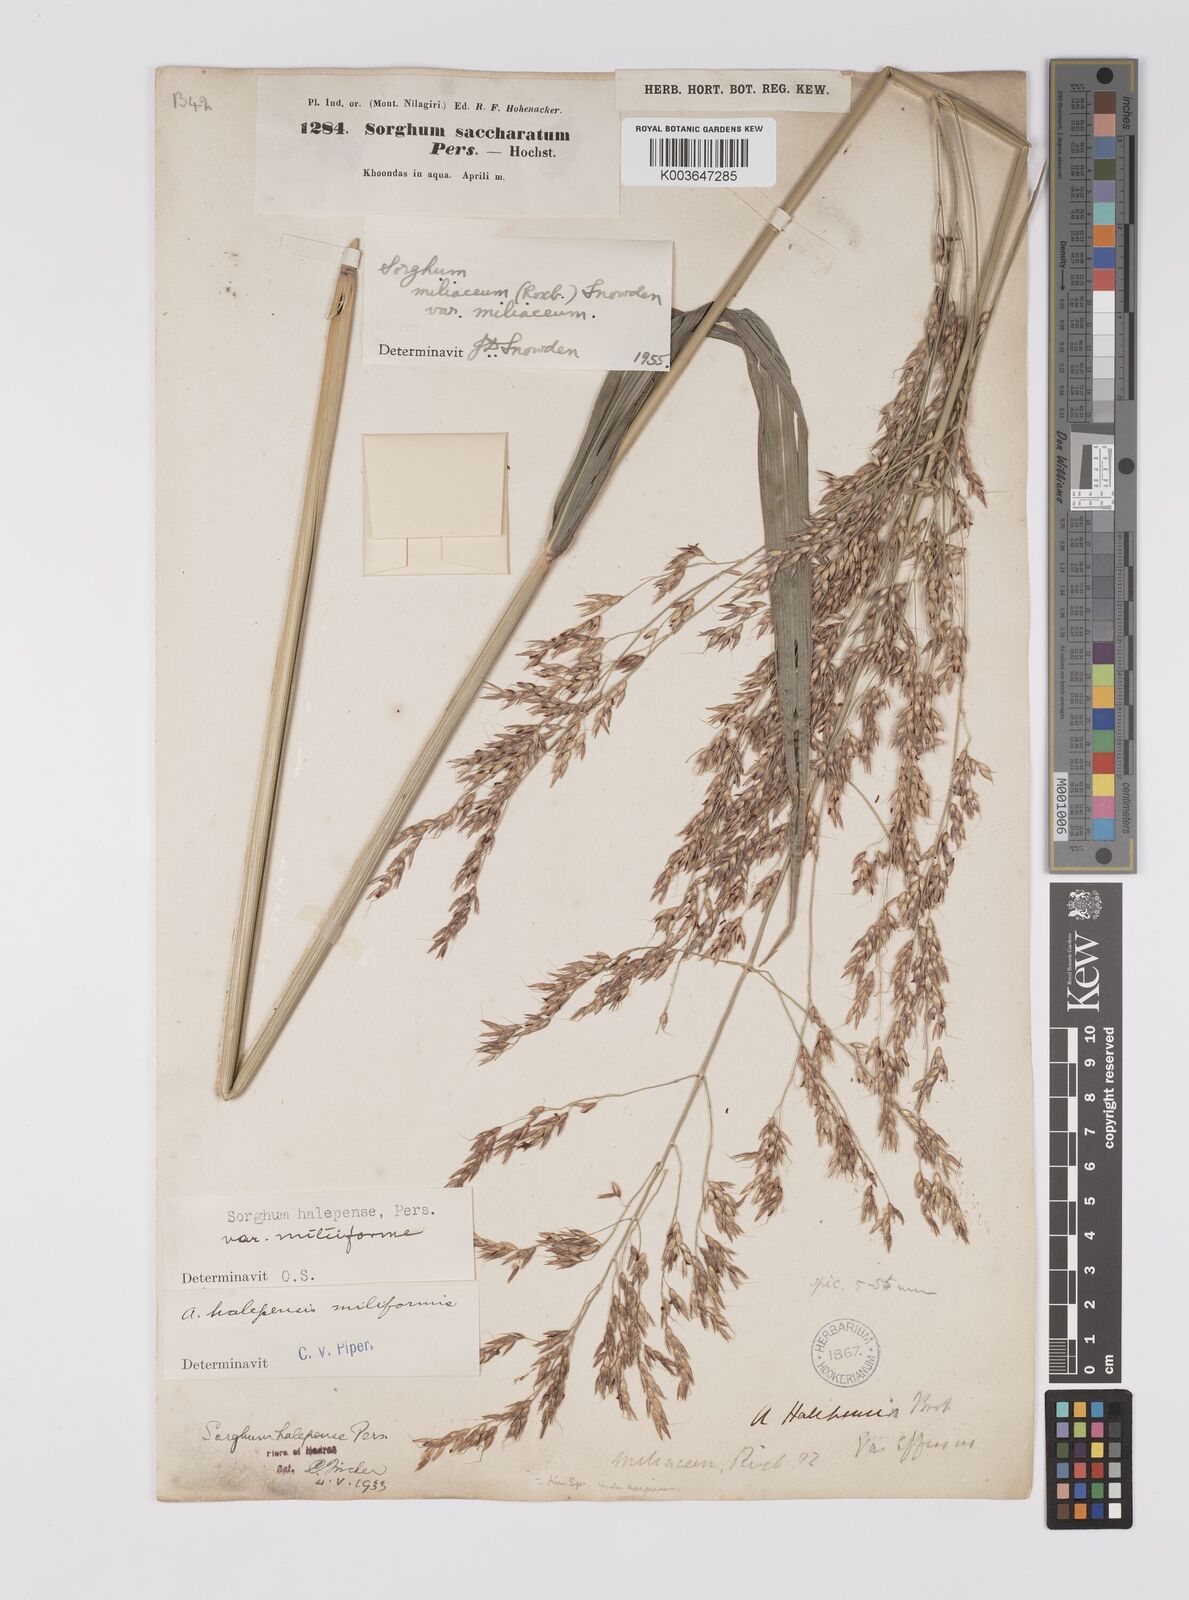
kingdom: Plantae
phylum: Tracheophyta
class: Liliopsida
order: Poales
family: Poaceae
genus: Sorghum
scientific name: Sorghum halepense
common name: Johnson-grass
